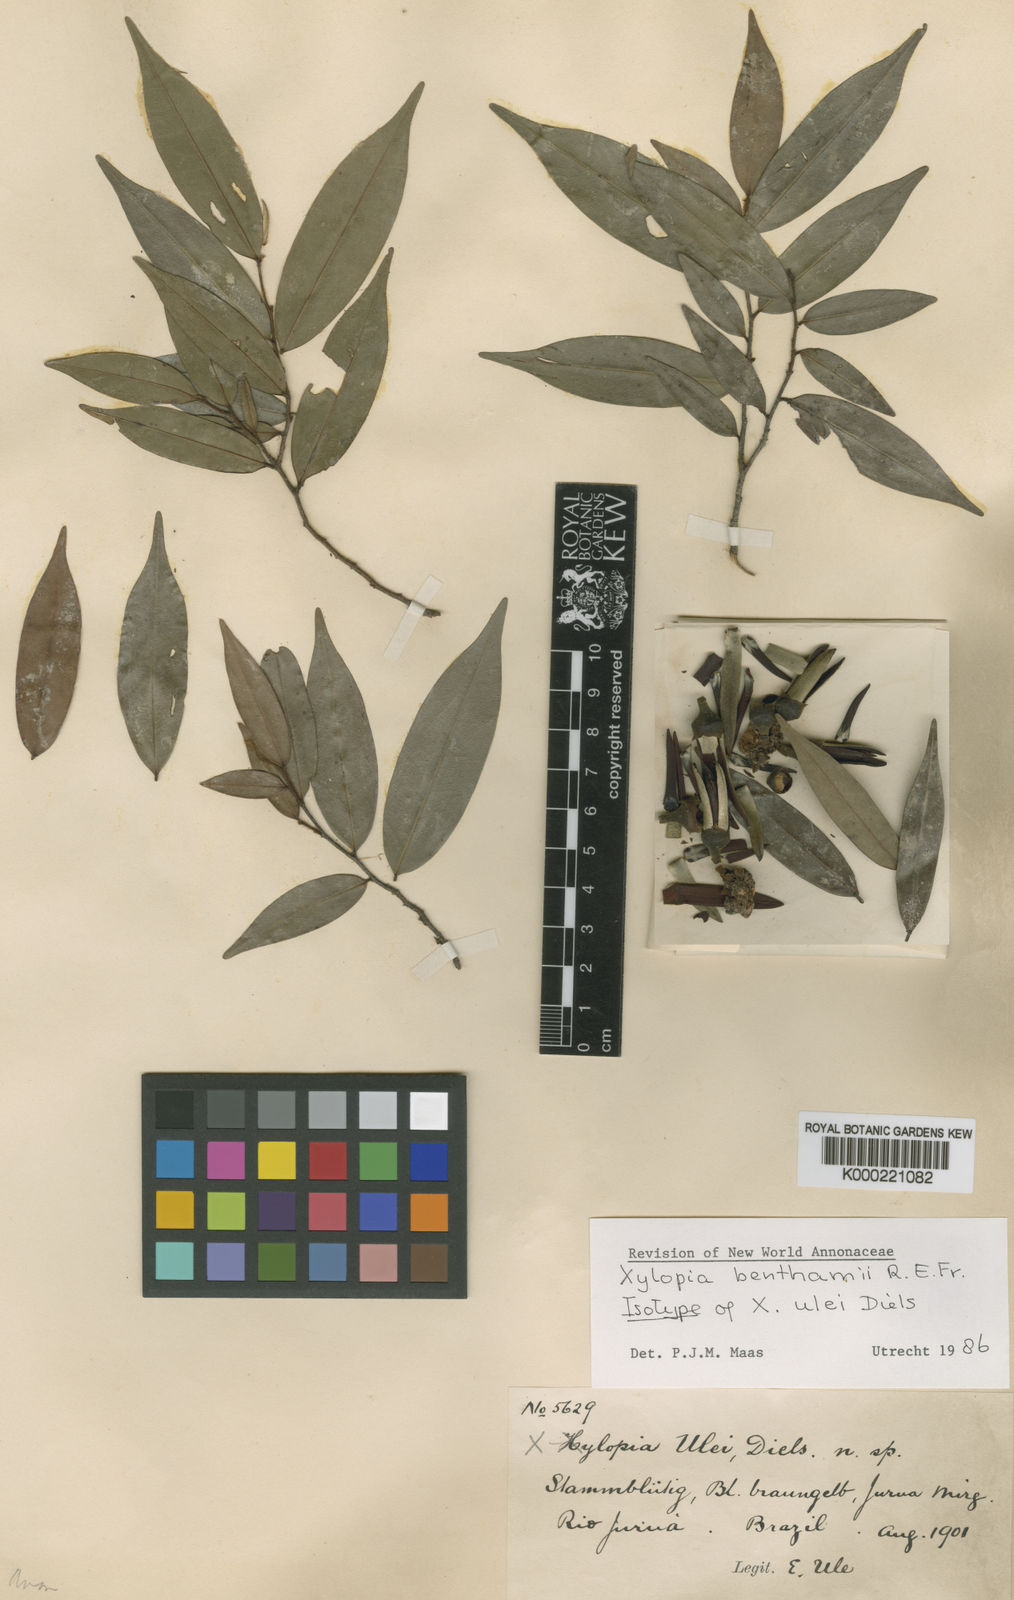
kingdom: Plantae
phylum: Tracheophyta
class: Magnoliopsida
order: Magnoliales
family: Annonaceae
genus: Xylopia
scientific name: Xylopia benthamii
